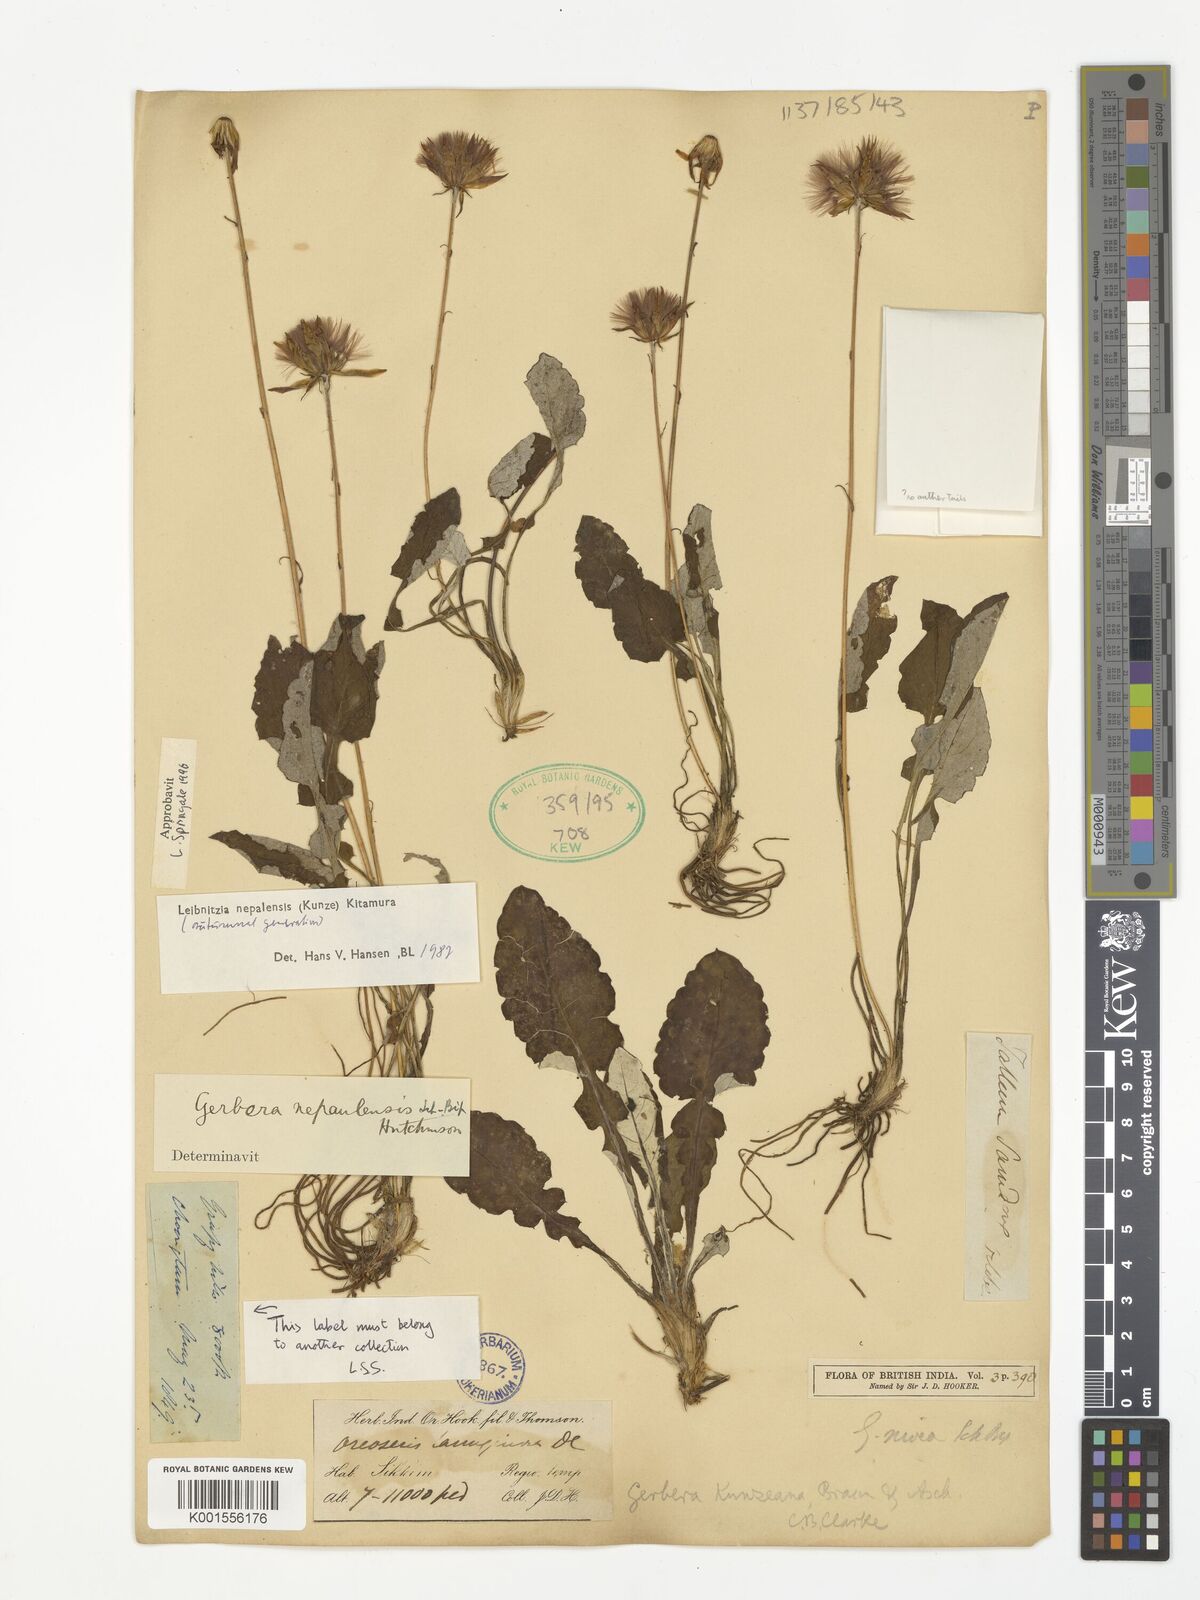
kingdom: Plantae
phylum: Tracheophyta
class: Magnoliopsida
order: Asterales
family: Asteraceae
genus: Leibnitzia
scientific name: Leibnitzia nepalensis
